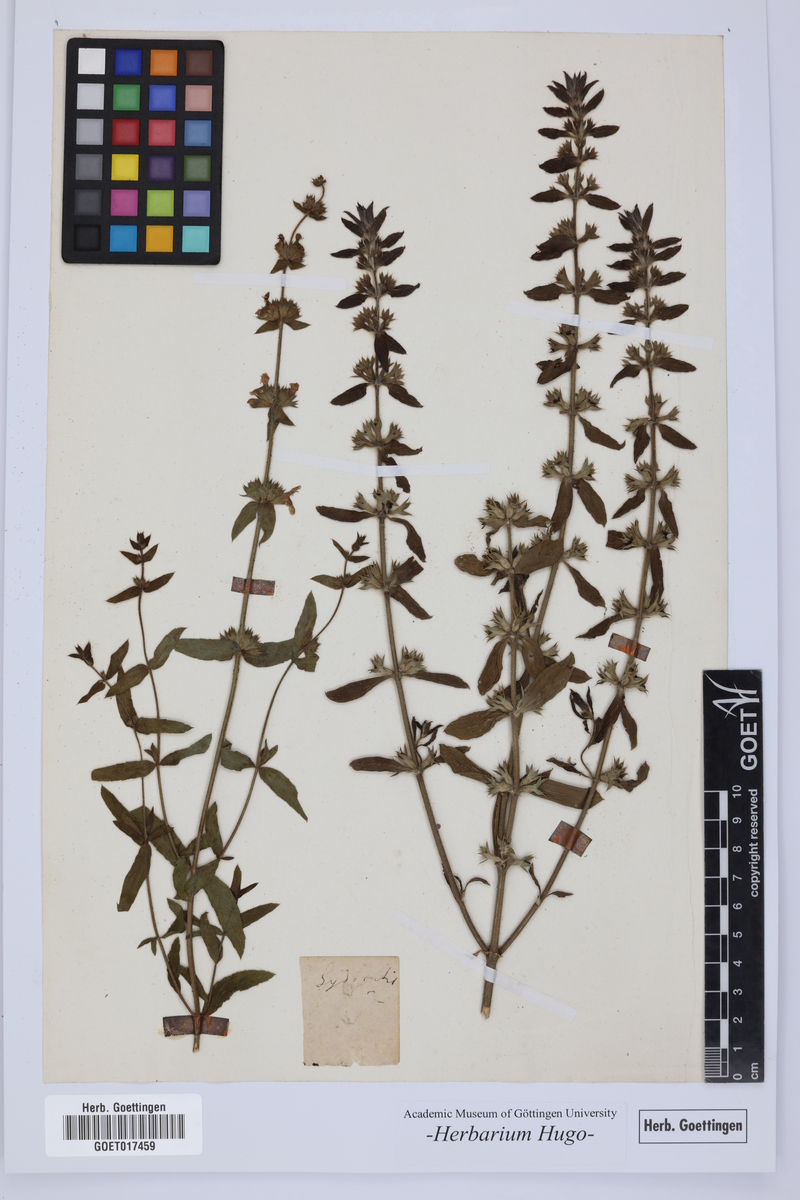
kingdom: Plantae
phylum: Tracheophyta
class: Magnoliopsida
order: Lamiales
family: Lamiaceae
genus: Sideritis
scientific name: Sideritis
